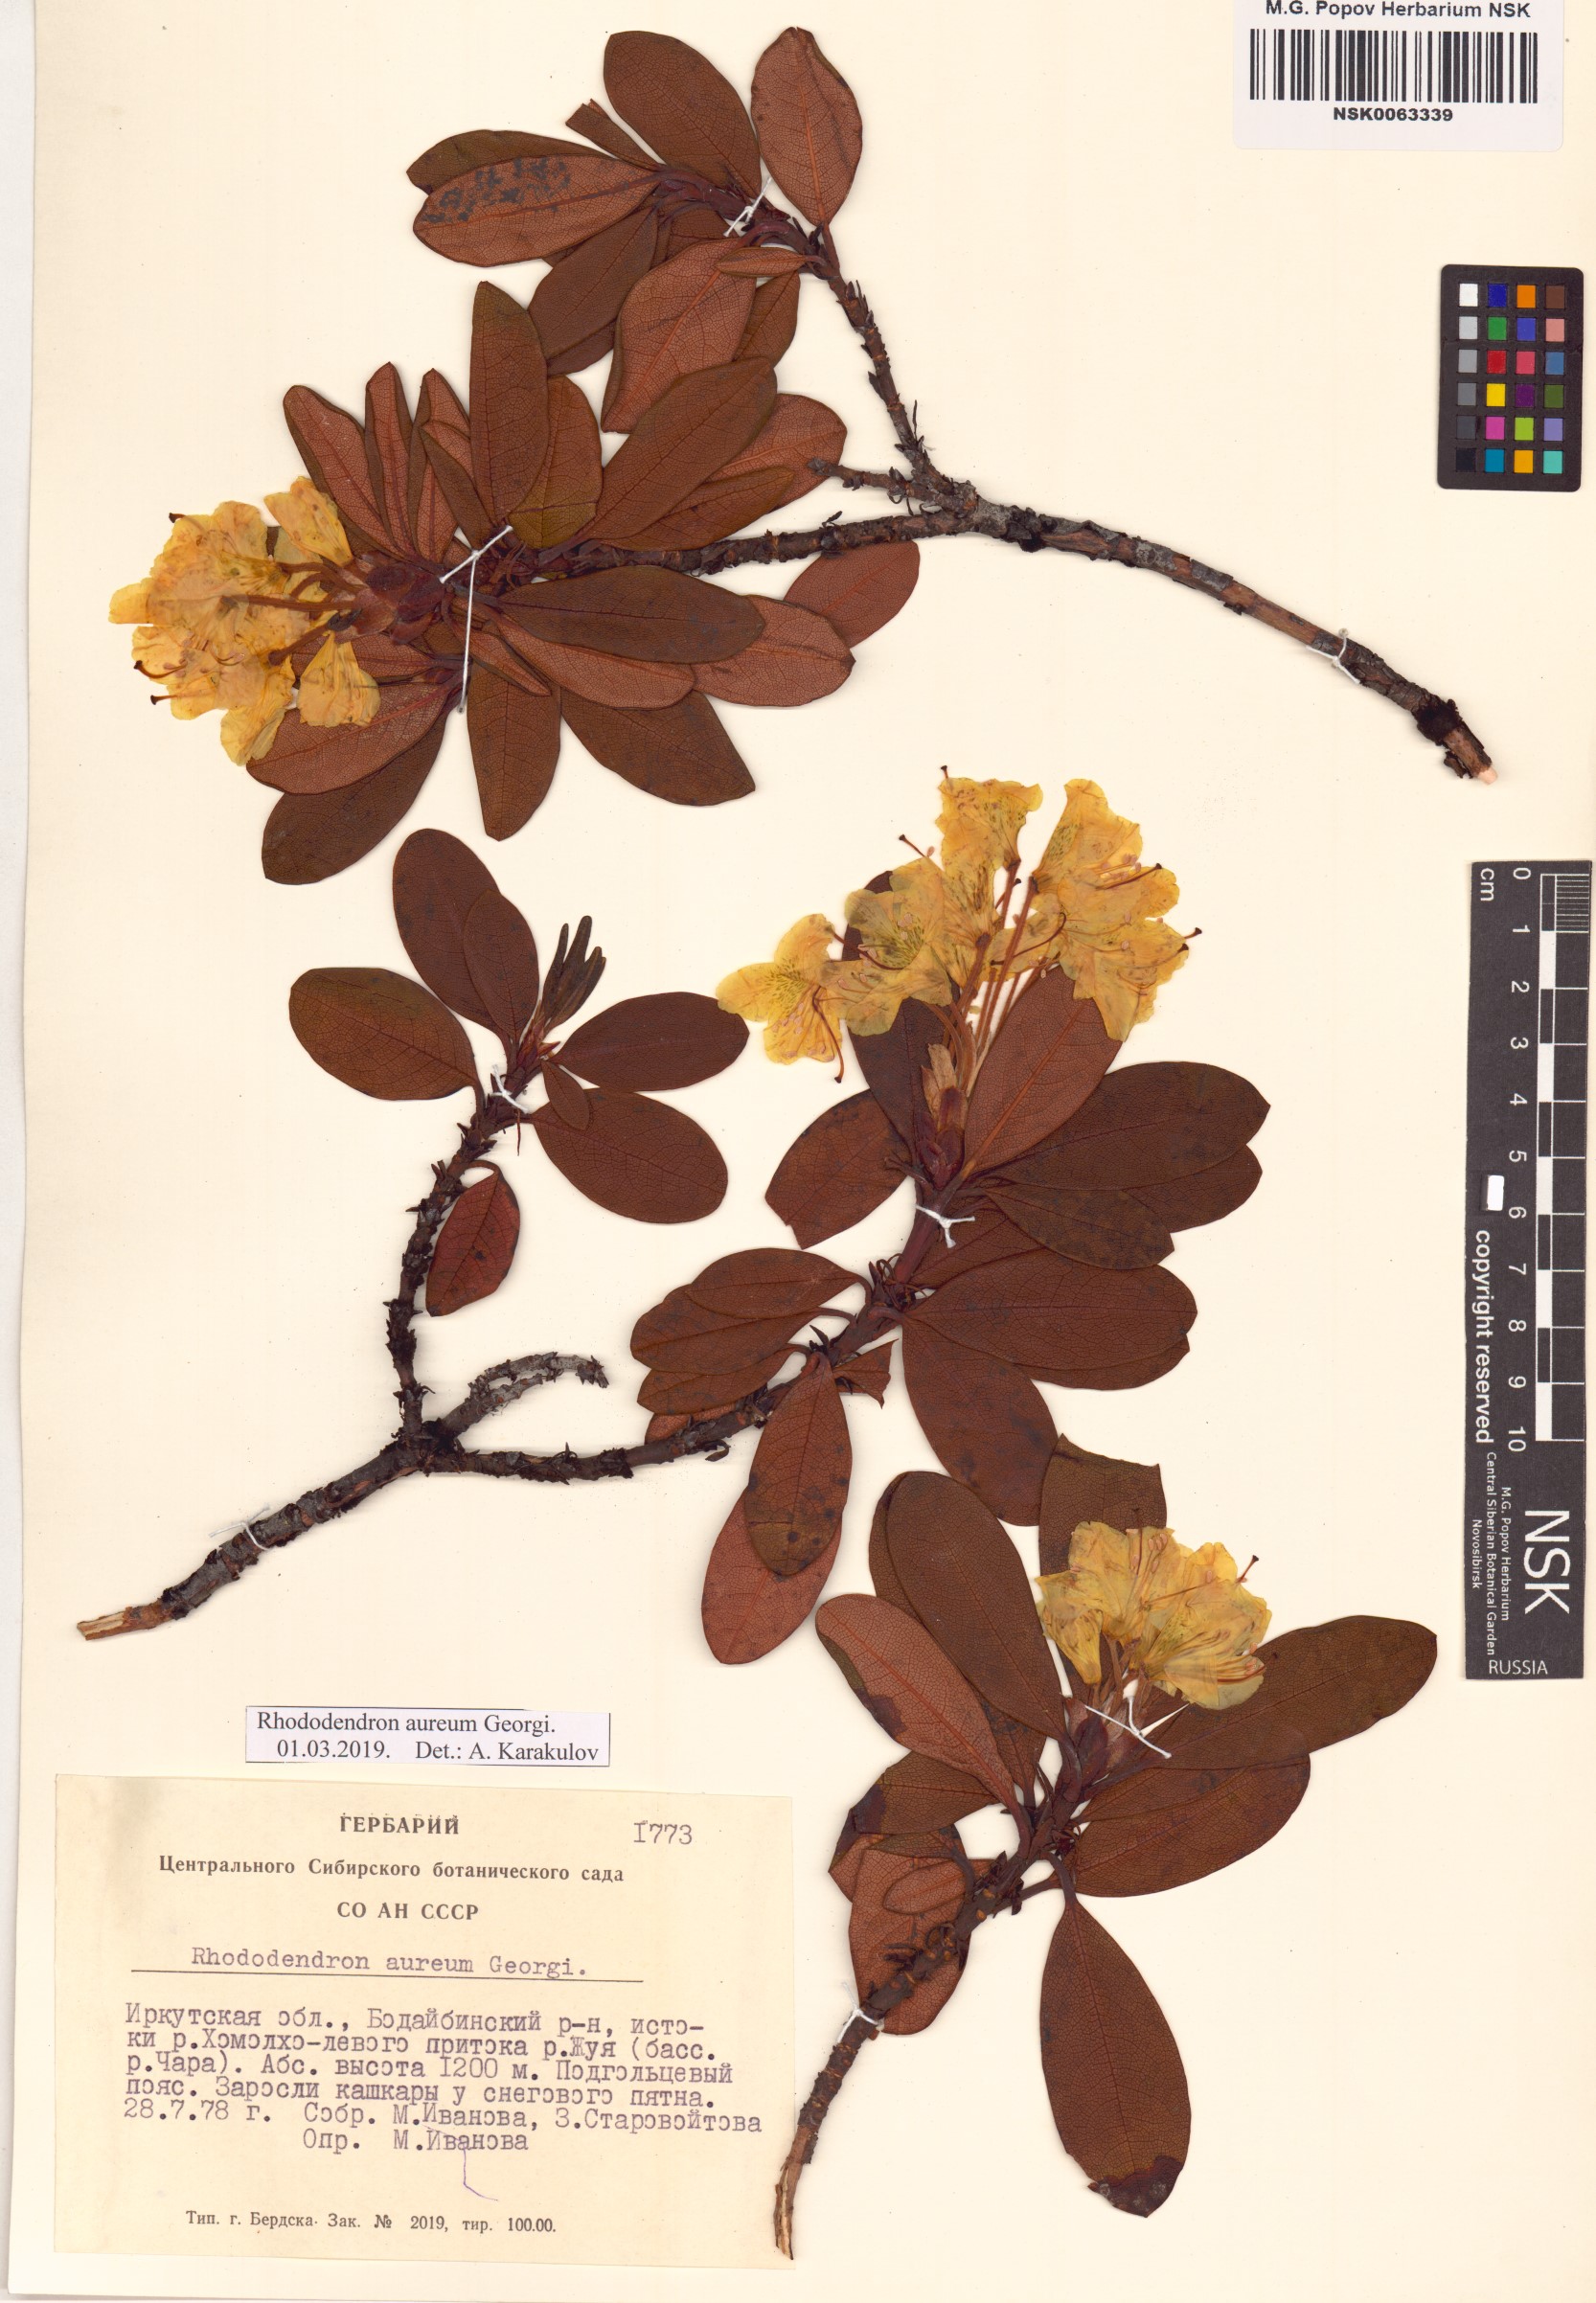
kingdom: Plantae
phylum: Tracheophyta
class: Magnoliopsida
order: Ericales
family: Ericaceae
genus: Rhododendron
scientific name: Rhododendron aureum
